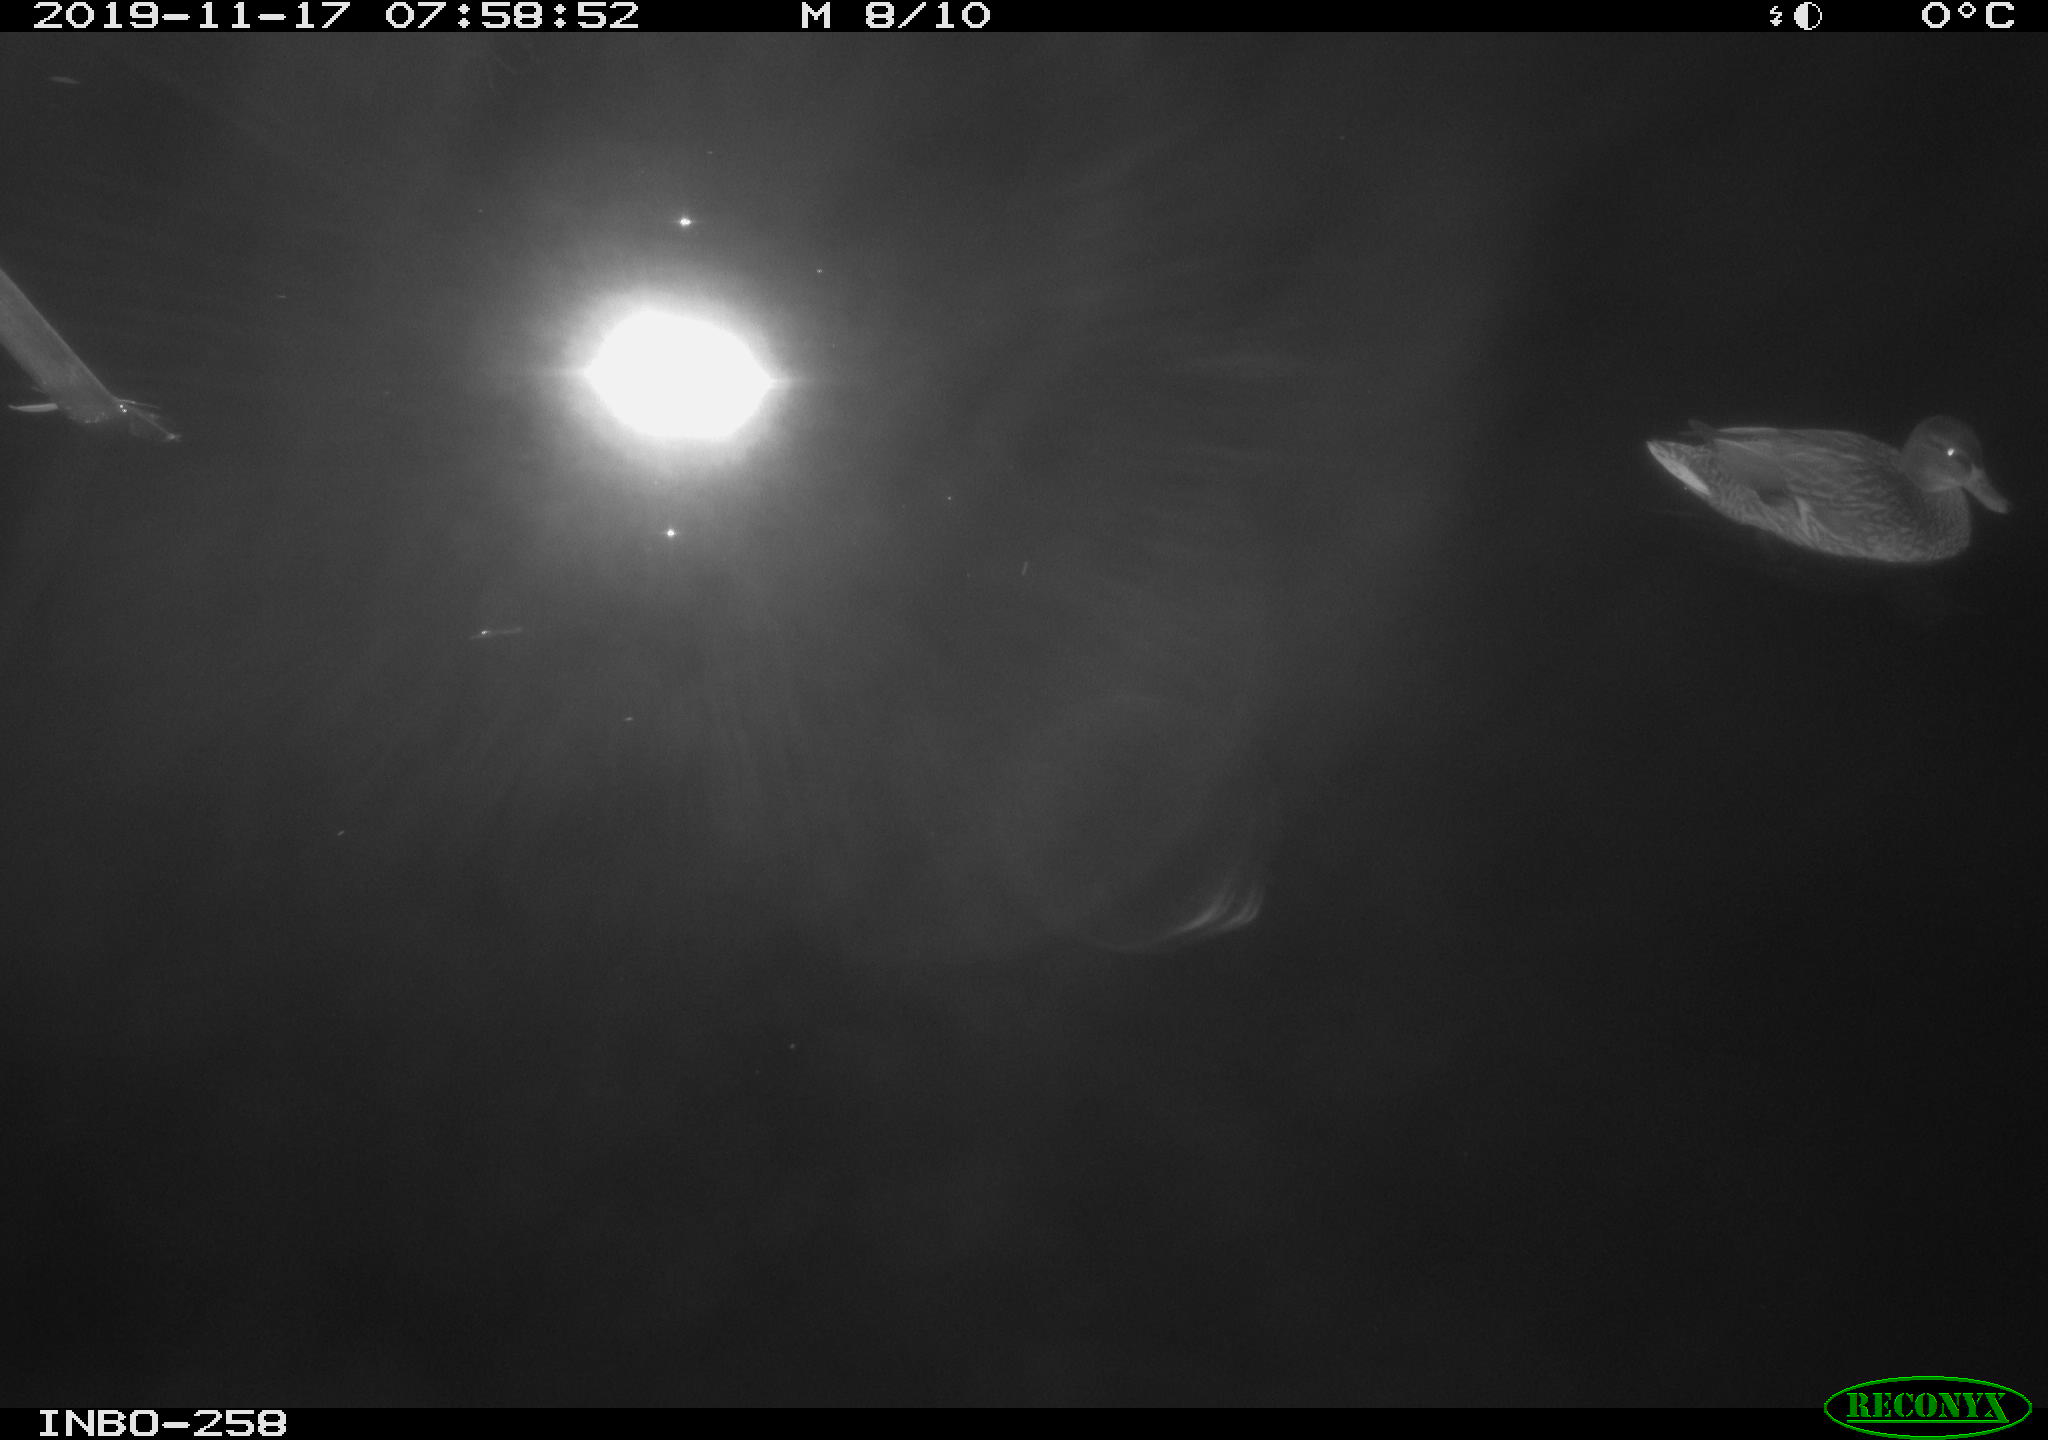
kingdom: Animalia
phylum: Chordata
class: Aves
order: Anseriformes
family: Anatidae
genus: Anas
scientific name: Anas platyrhynchos
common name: Mallard
